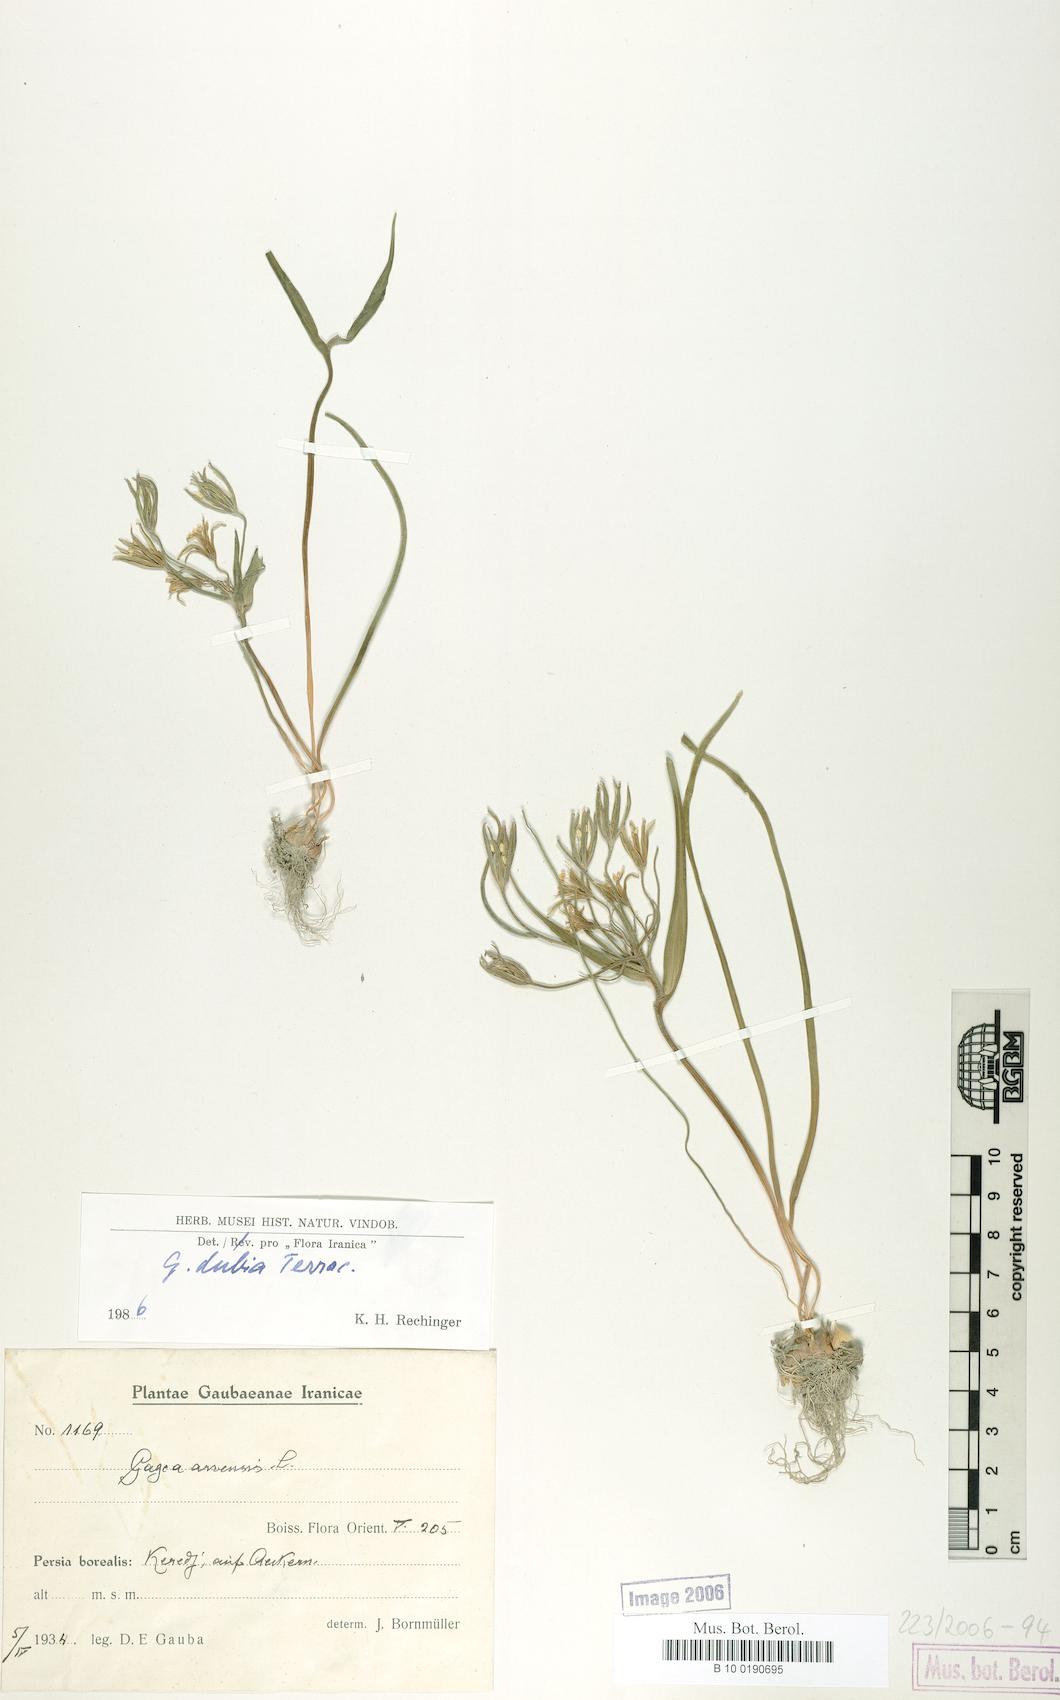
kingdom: Plantae
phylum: Tracheophyta
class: Liliopsida
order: Liliales
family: Liliaceae
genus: Gagea
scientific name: Gagea dubia
